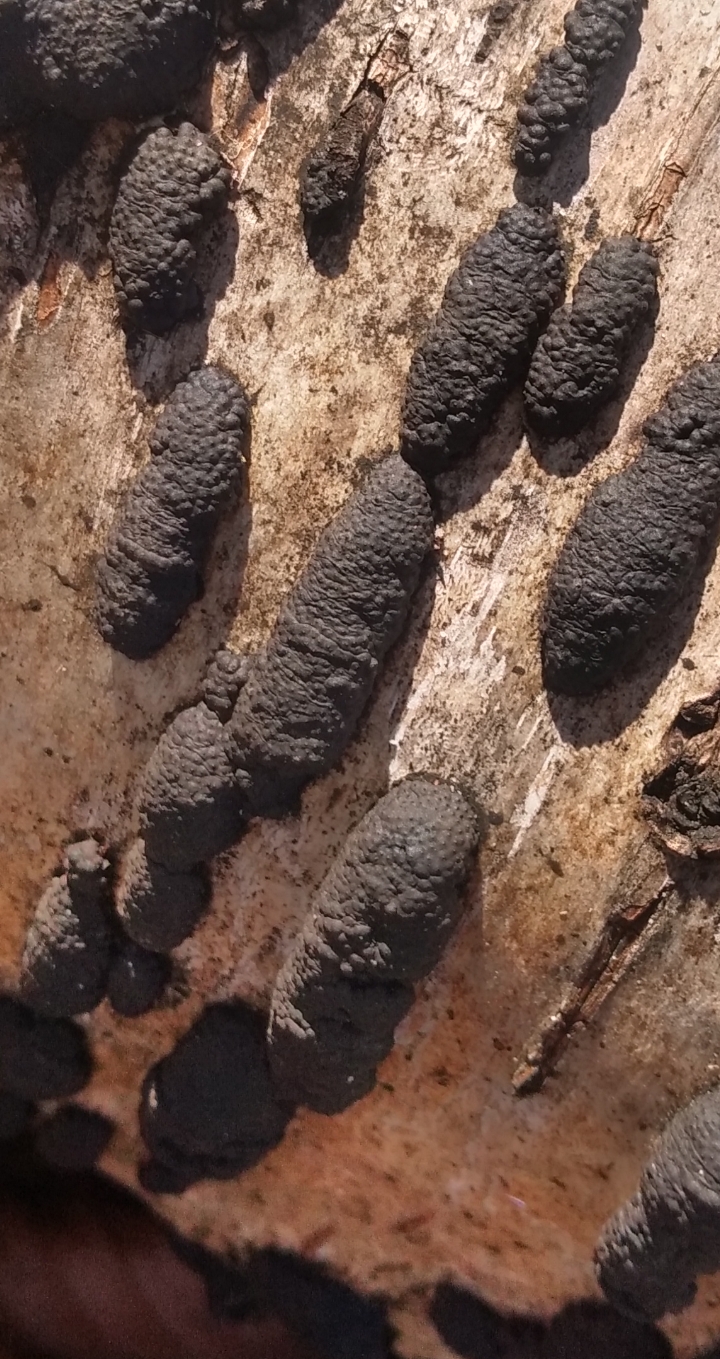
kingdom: Fungi
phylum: Ascomycota
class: Sordariomycetes
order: Xylariales
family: Hypoxylaceae
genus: Jackrogersella
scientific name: Jackrogersella multiformis
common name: foranderlig kulbær
